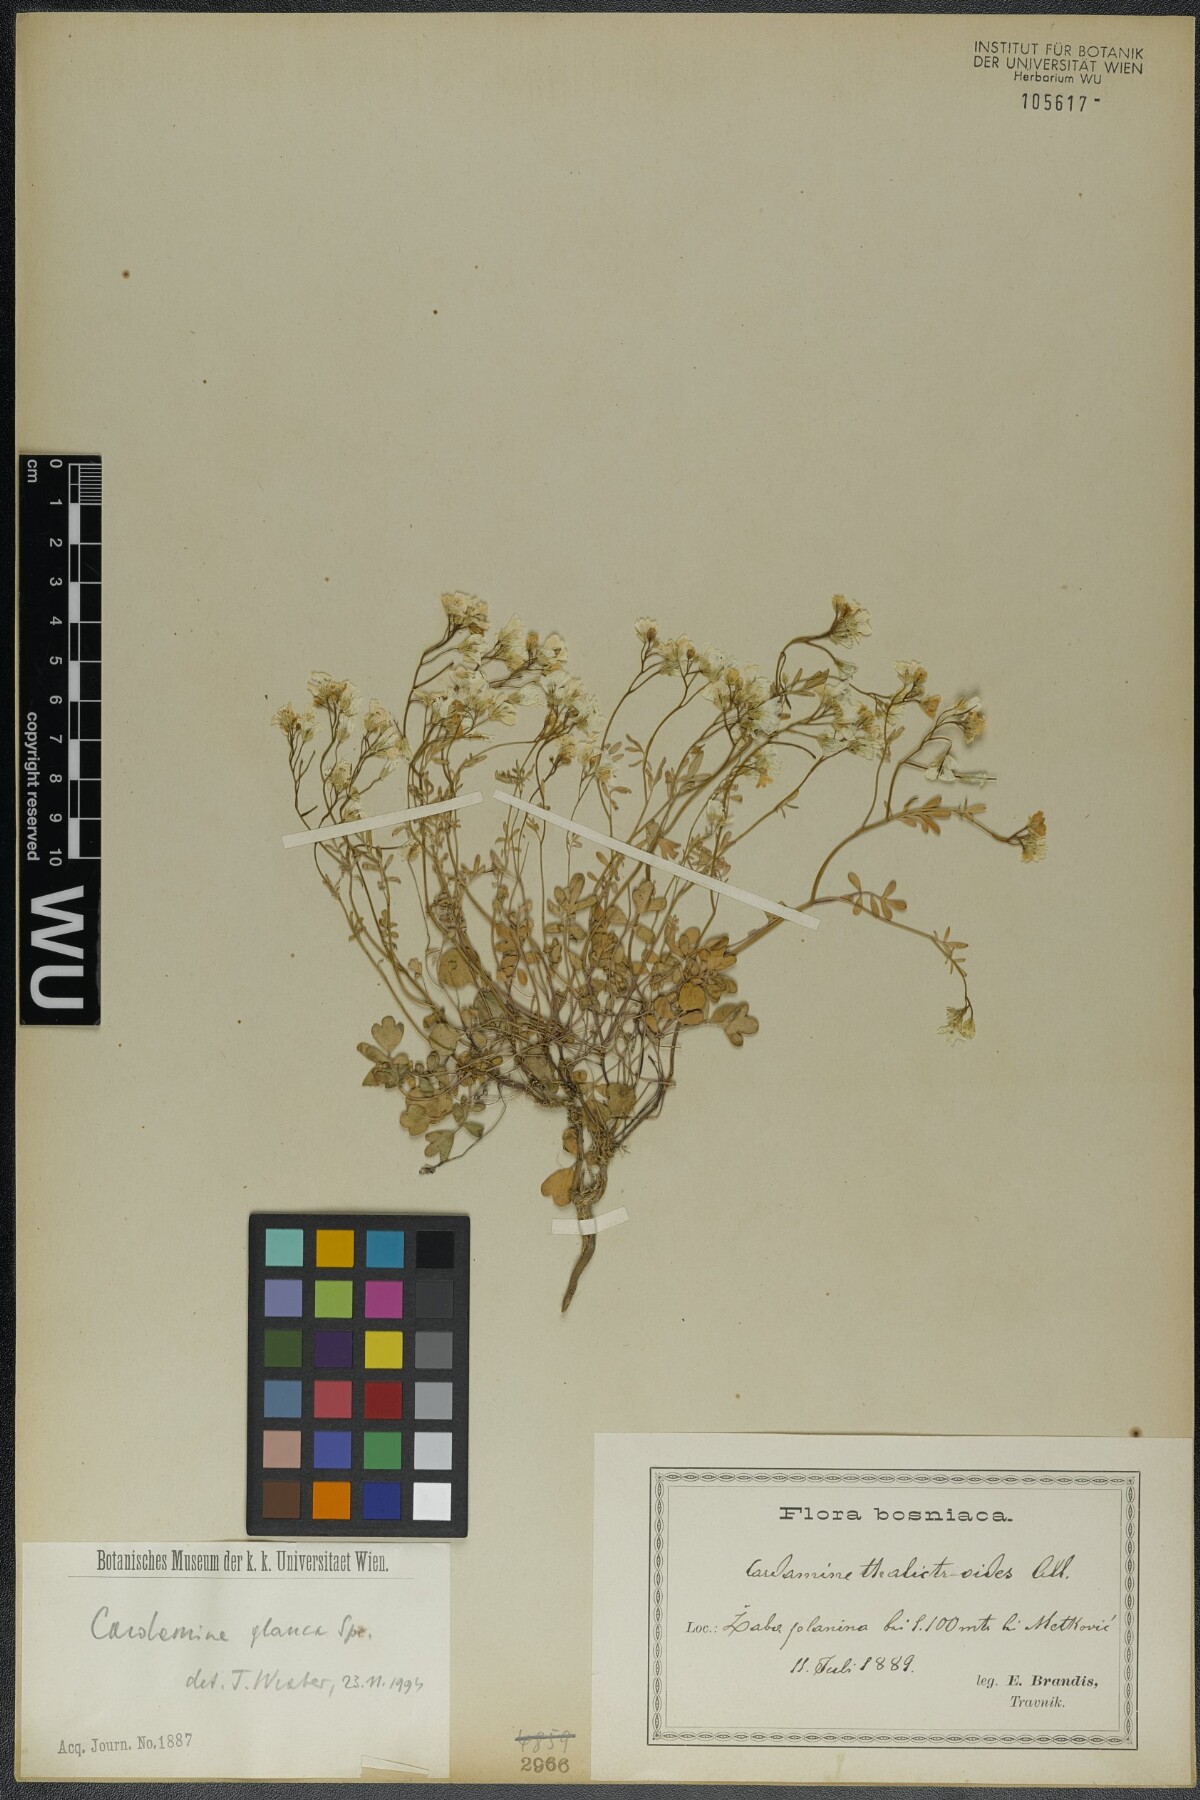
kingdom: Plantae
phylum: Tracheophyta
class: Magnoliopsida
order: Brassicales
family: Brassicaceae
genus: Cardamine
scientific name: Cardamine glauca
